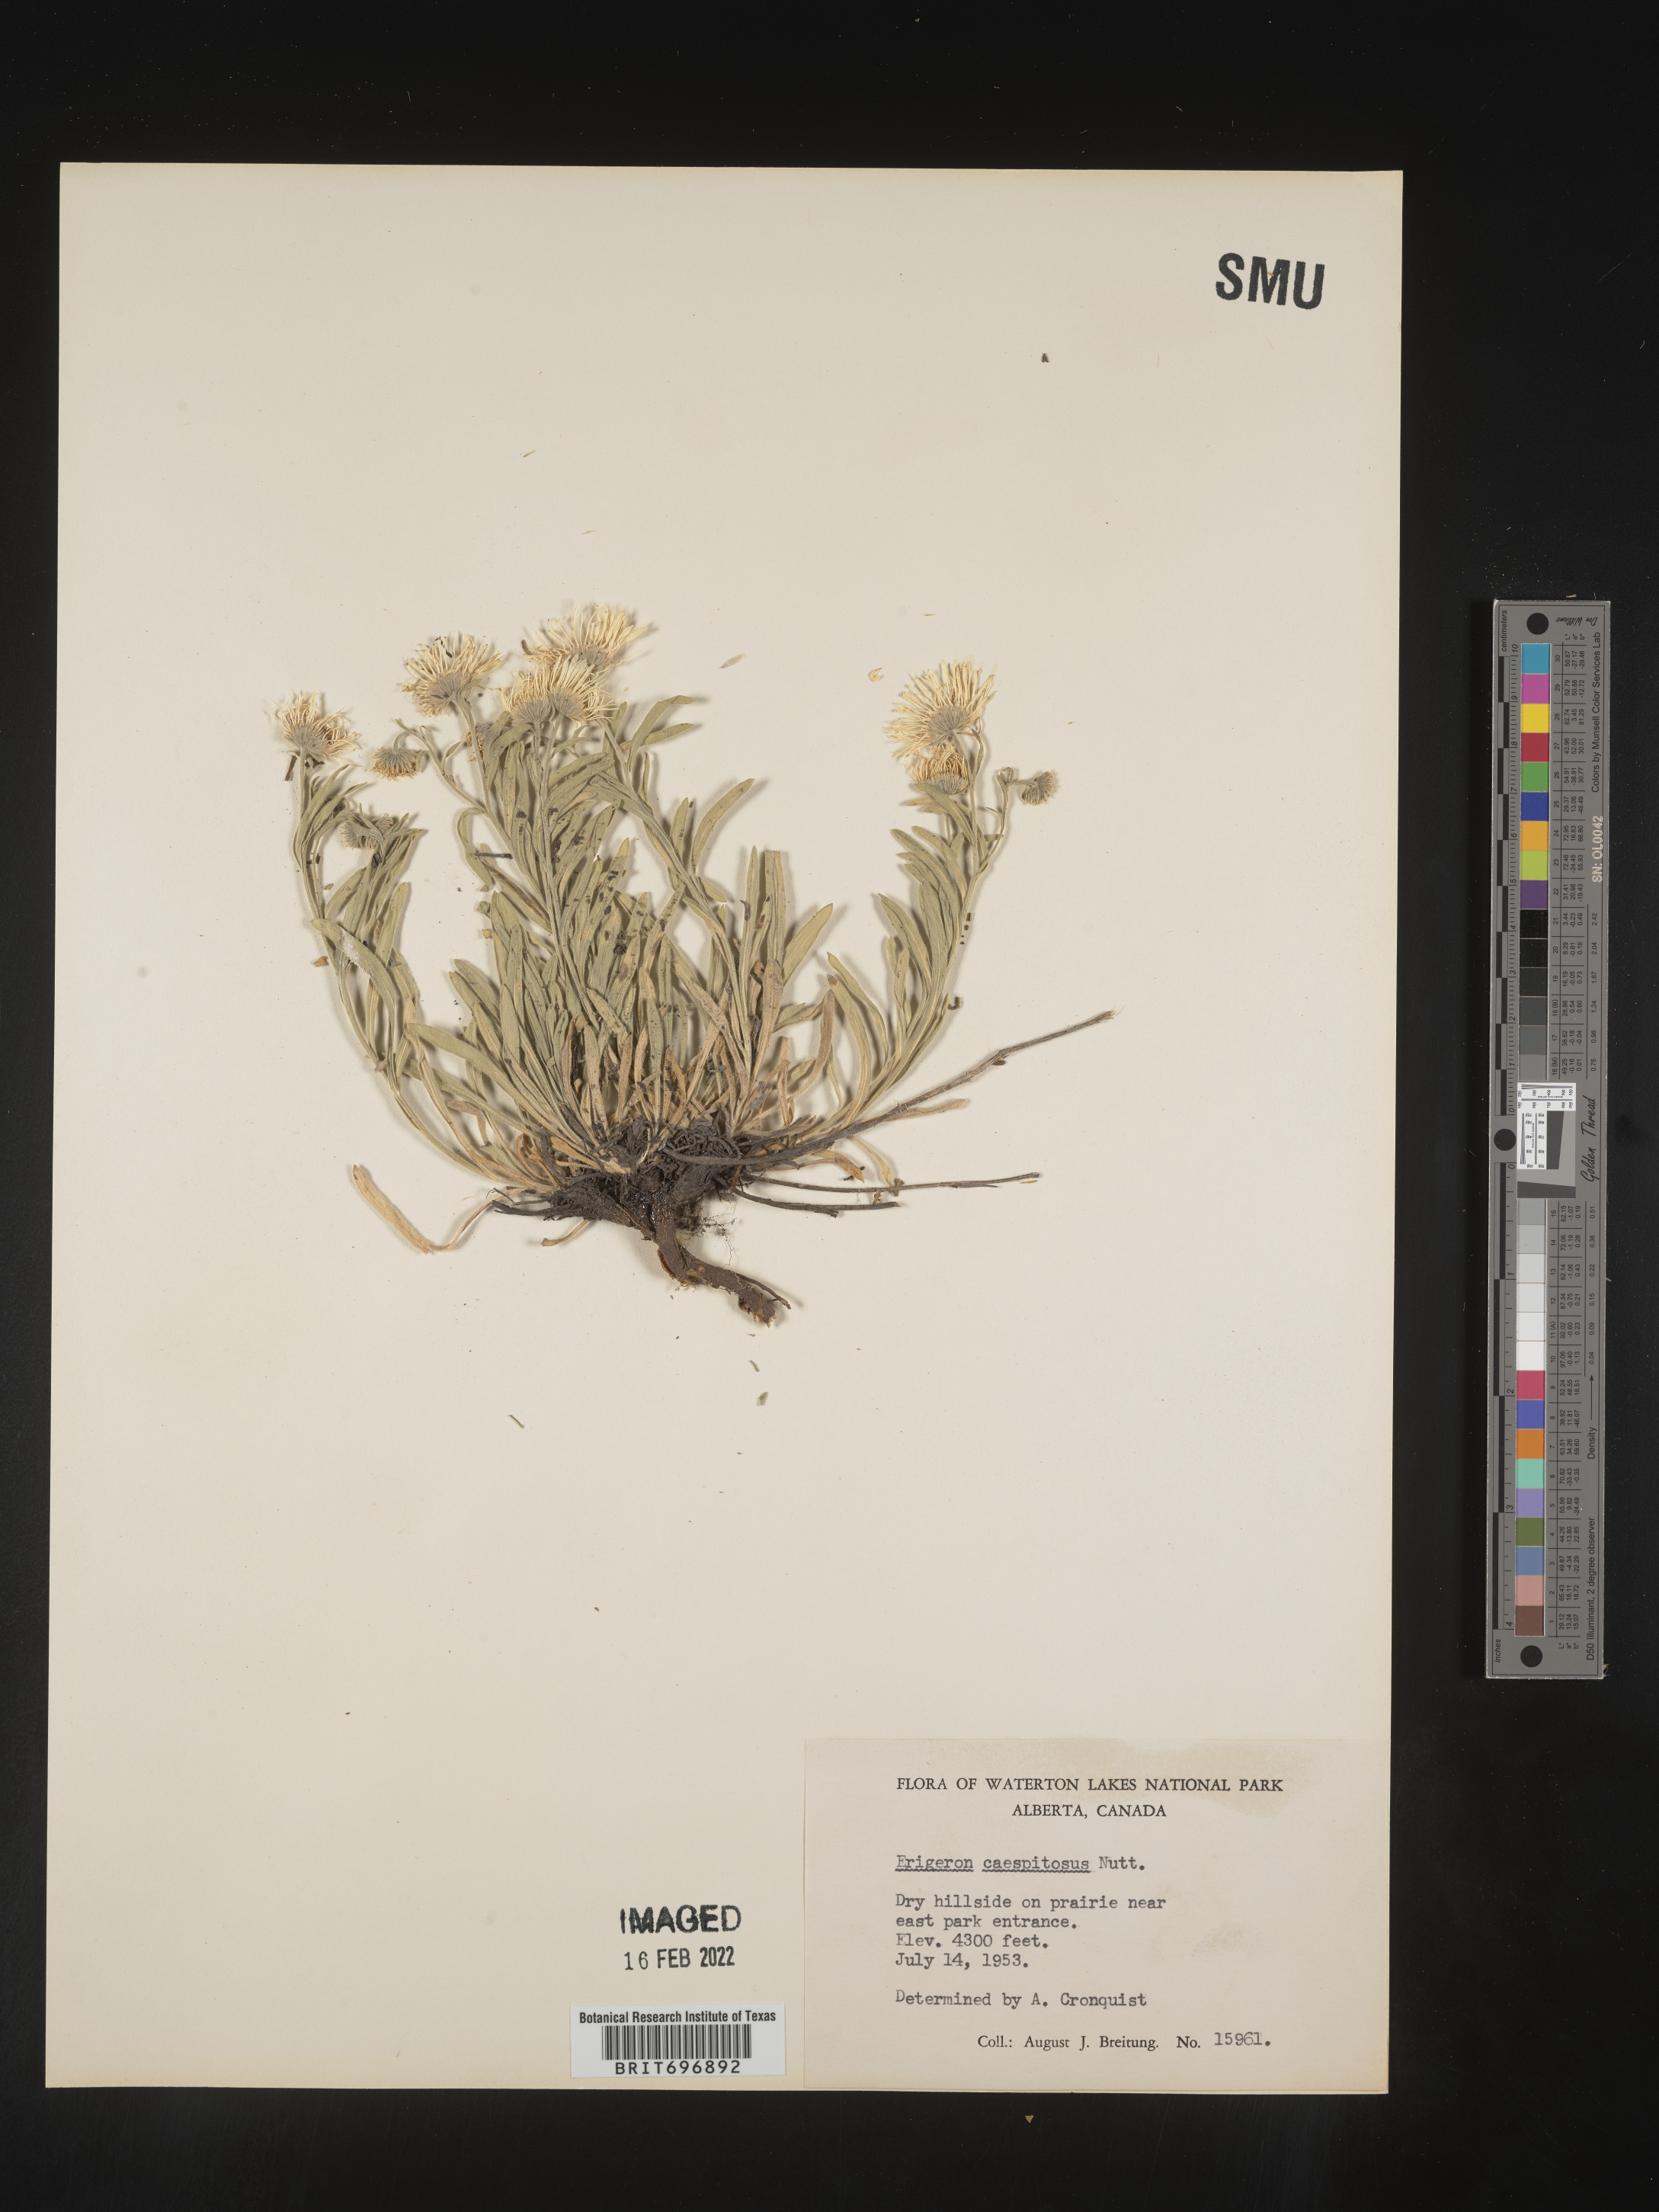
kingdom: Plantae
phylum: Tracheophyta
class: Magnoliopsida
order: Asterales
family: Asteraceae
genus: Erigeron
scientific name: Erigeron caespitosus
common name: Tufted fleabane
